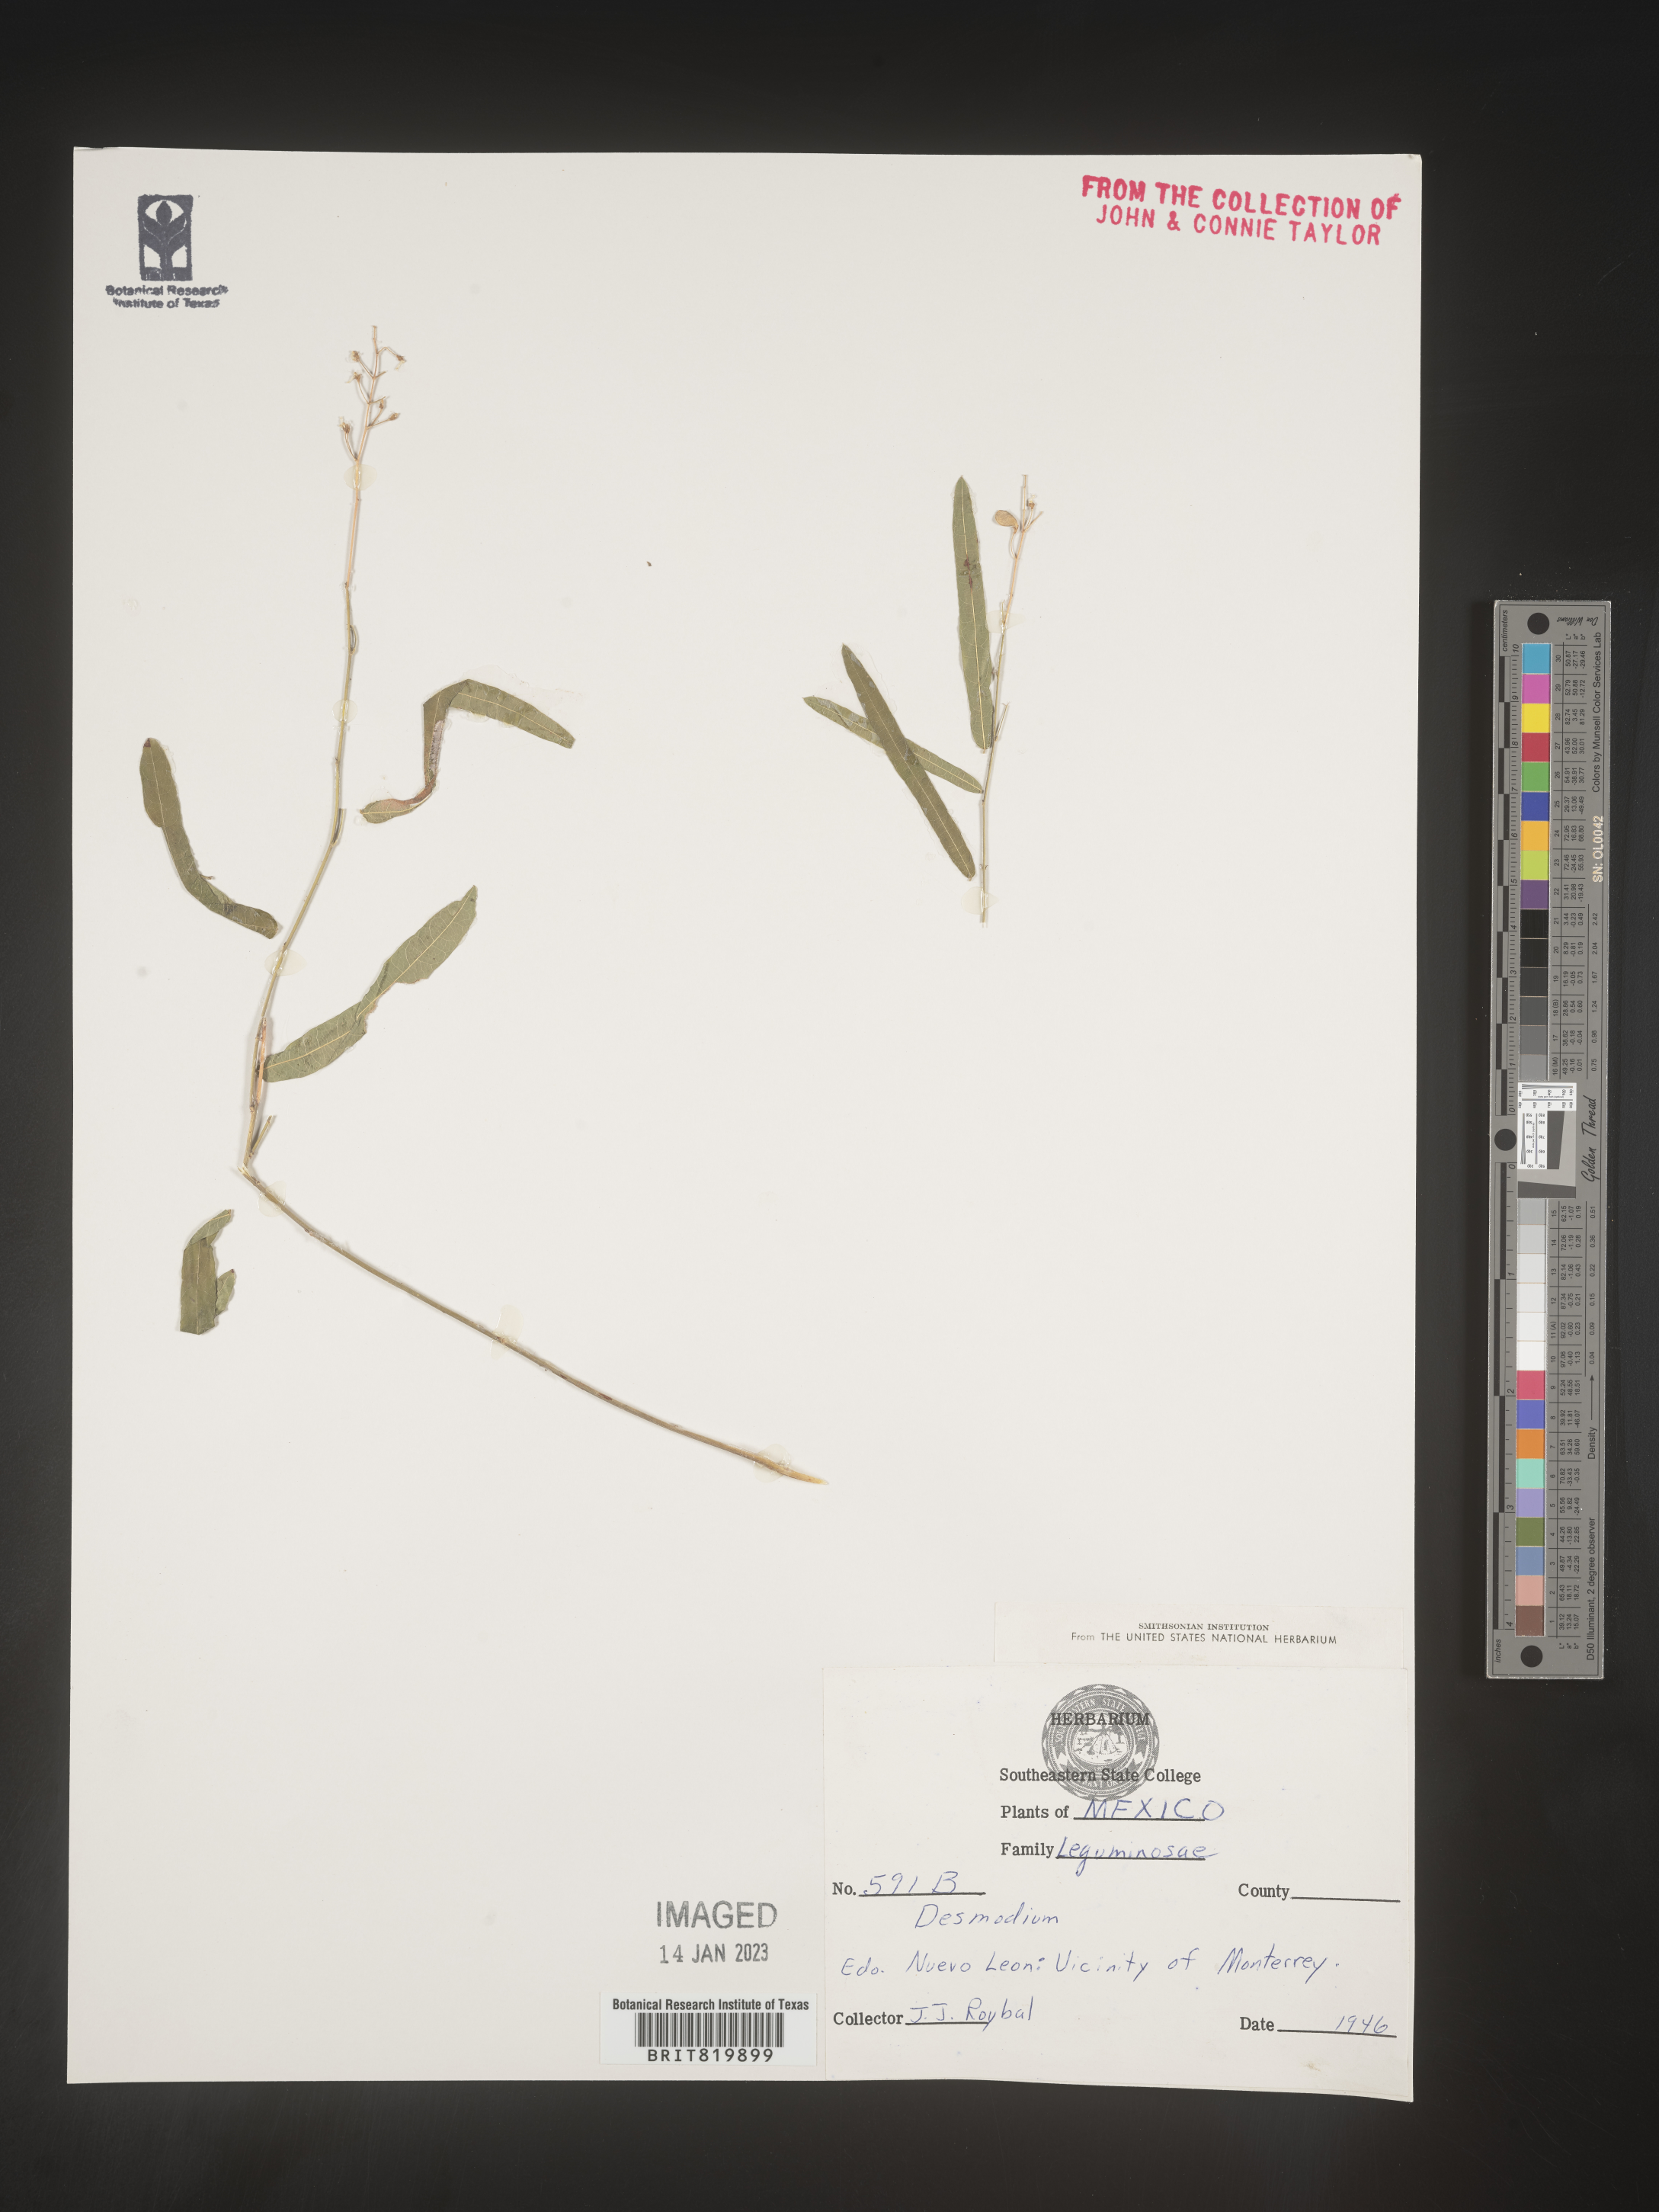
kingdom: Plantae
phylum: Tracheophyta
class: Magnoliopsida
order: Fabales
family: Fabaceae
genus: Desmodium
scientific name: Desmodium
